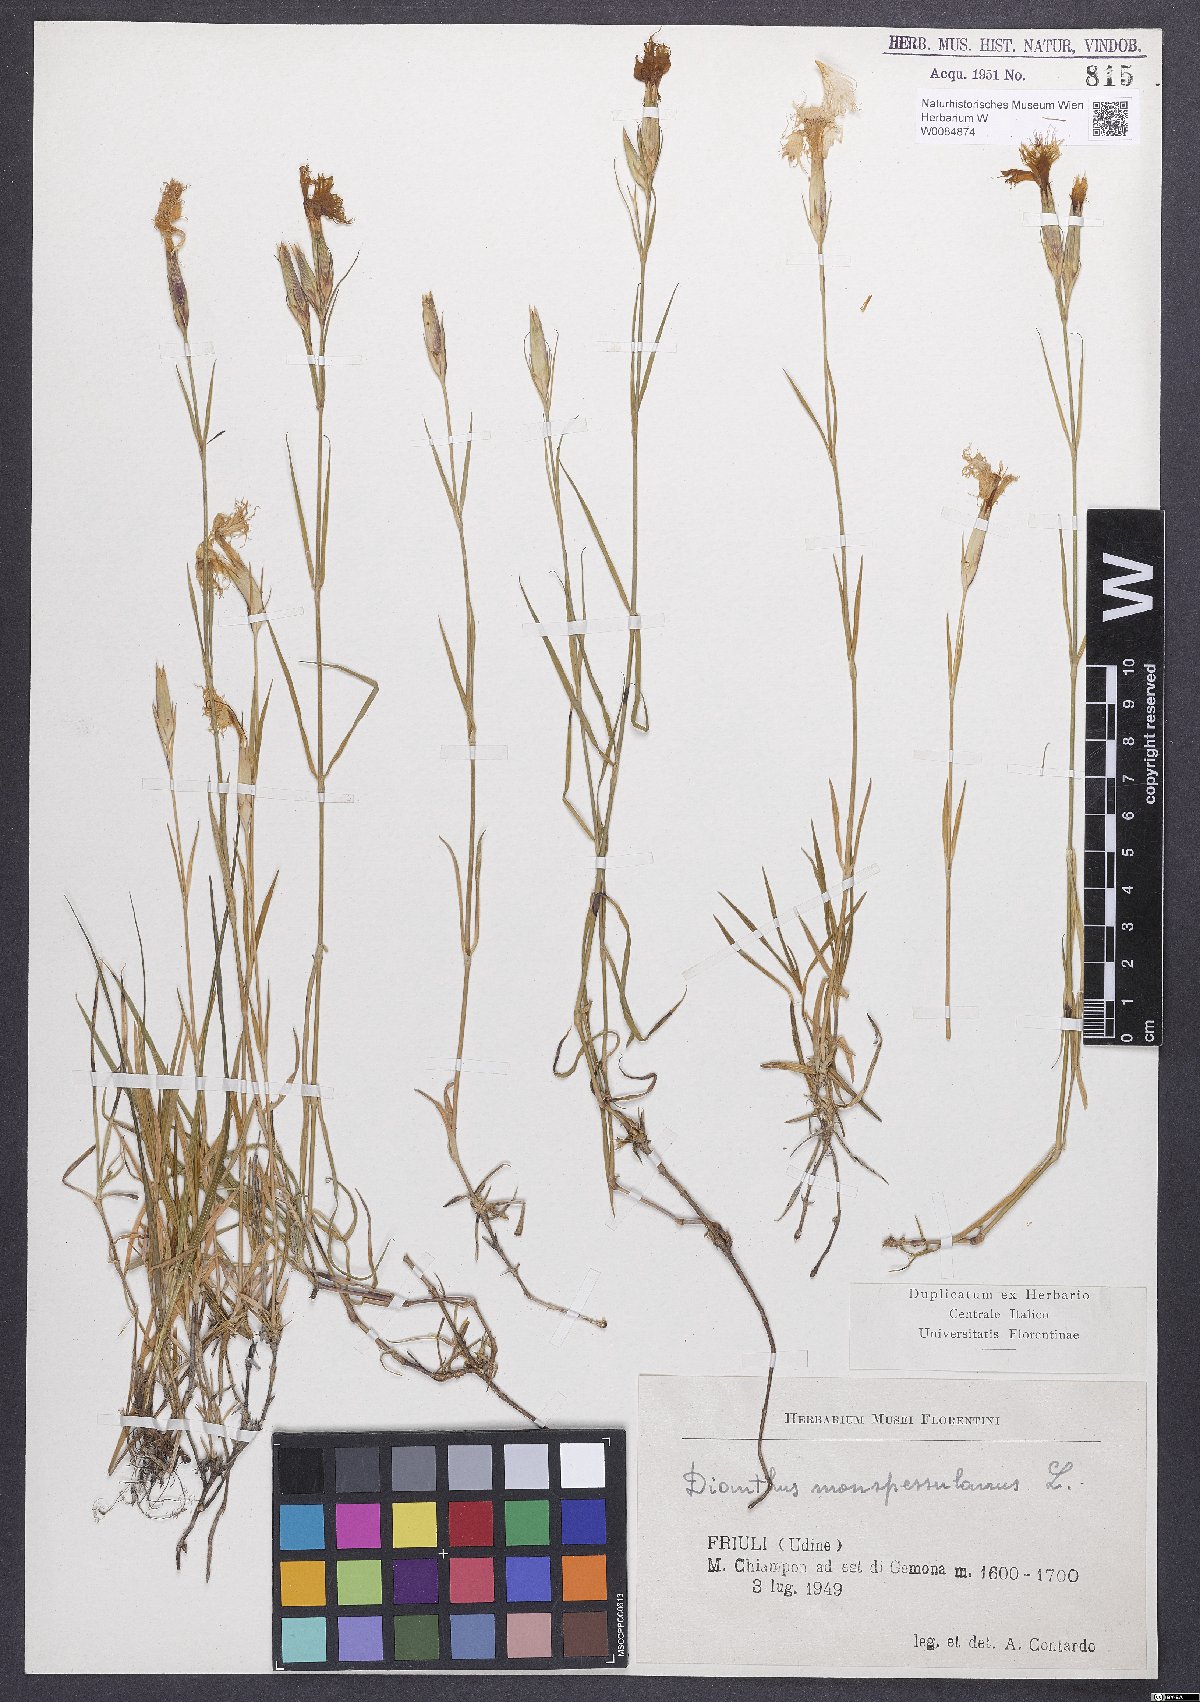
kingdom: Plantae
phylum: Tracheophyta
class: Magnoliopsida
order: Caryophyllales
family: Caryophyllaceae
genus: Dianthus
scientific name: Dianthus hyssopifolius
